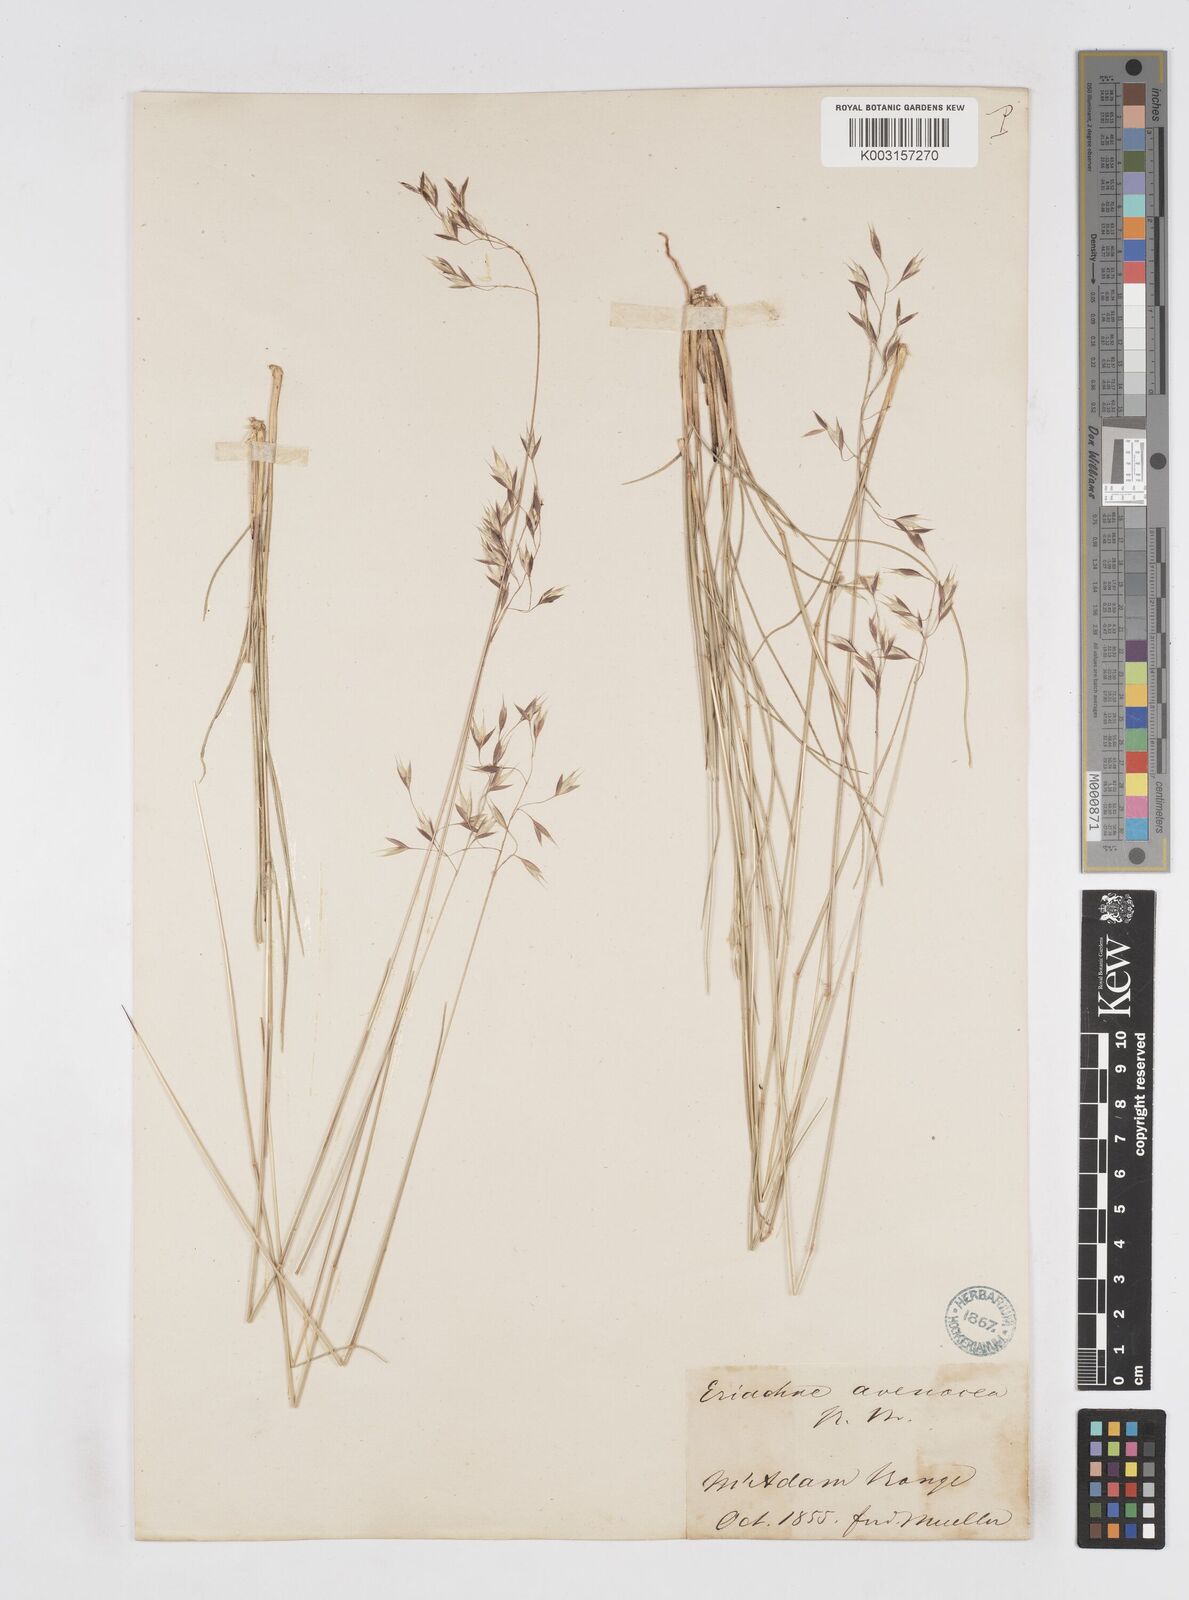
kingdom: Plantae
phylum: Tracheophyta
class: Liliopsida
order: Poales
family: Poaceae
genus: Eriachne
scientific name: Eriachne avenacea
